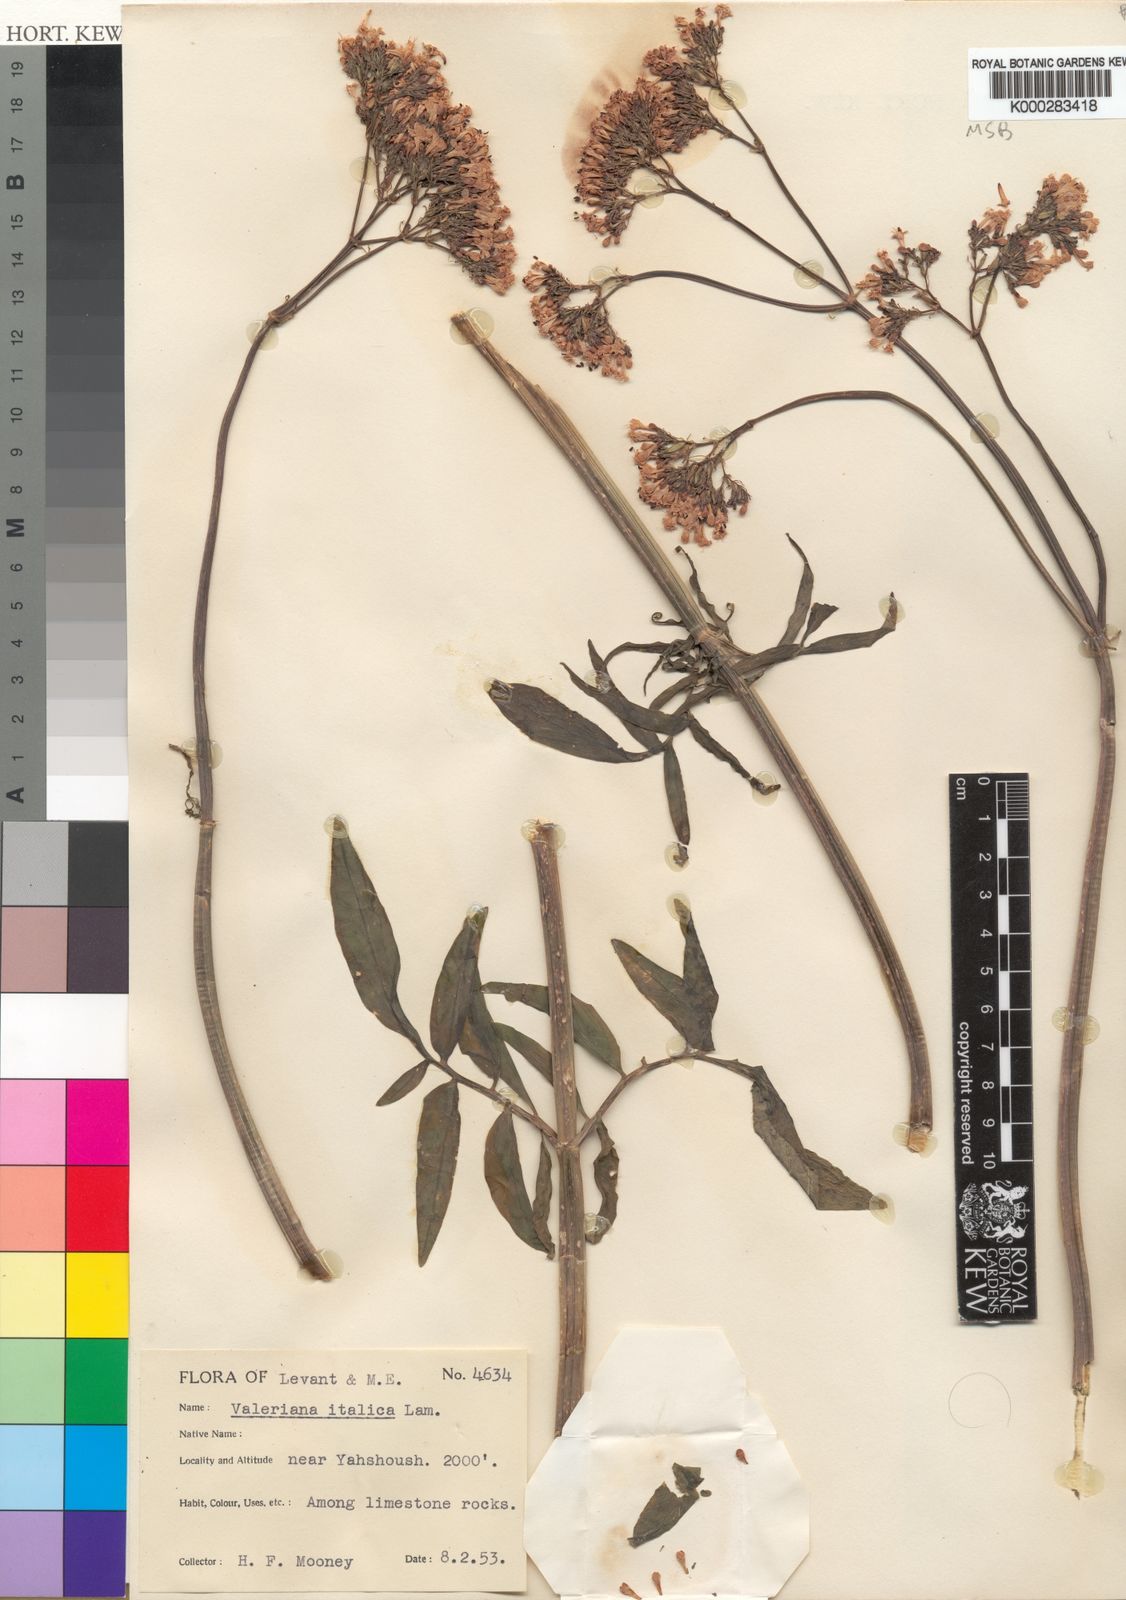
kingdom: Plantae
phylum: Tracheophyta
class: Magnoliopsida
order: Dipsacales
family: Caprifoliaceae
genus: Valeriana
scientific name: Valeriana dioscoridis
